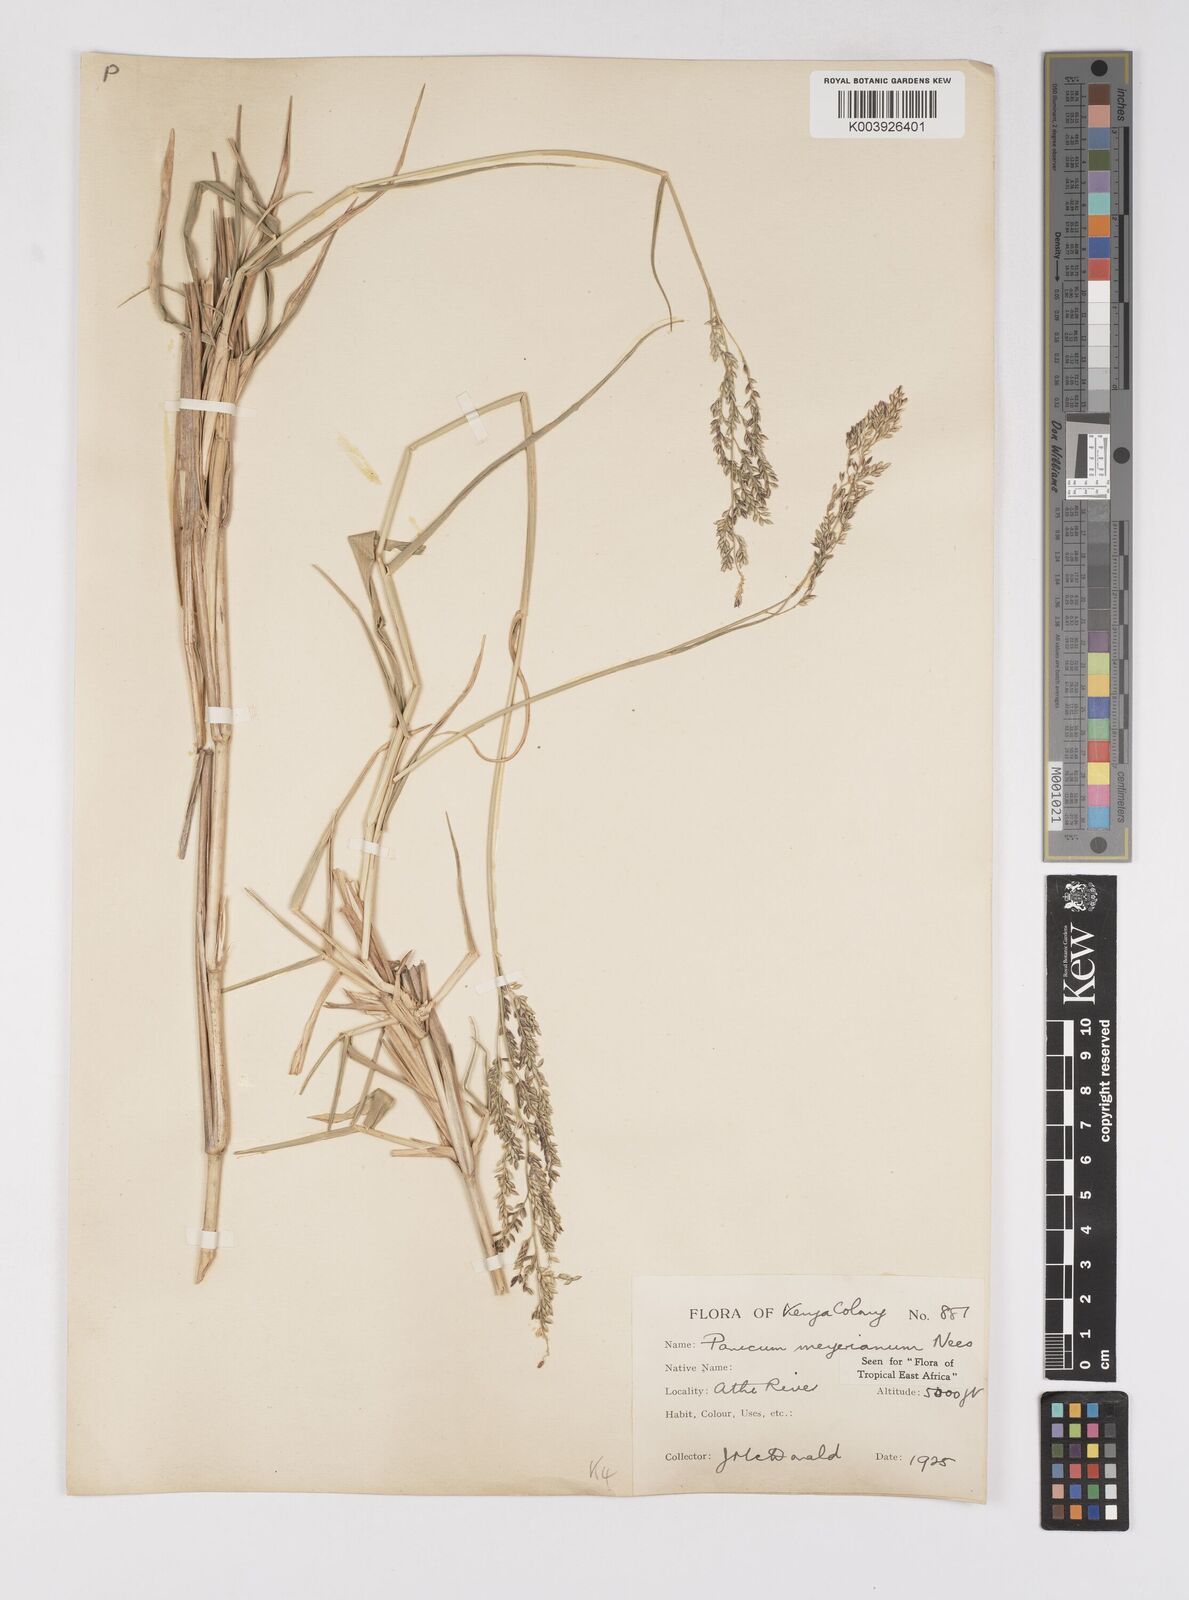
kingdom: Plantae
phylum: Tracheophyta
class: Liliopsida
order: Poales
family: Poaceae
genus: Eriochloa
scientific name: Eriochloa meyeriana
